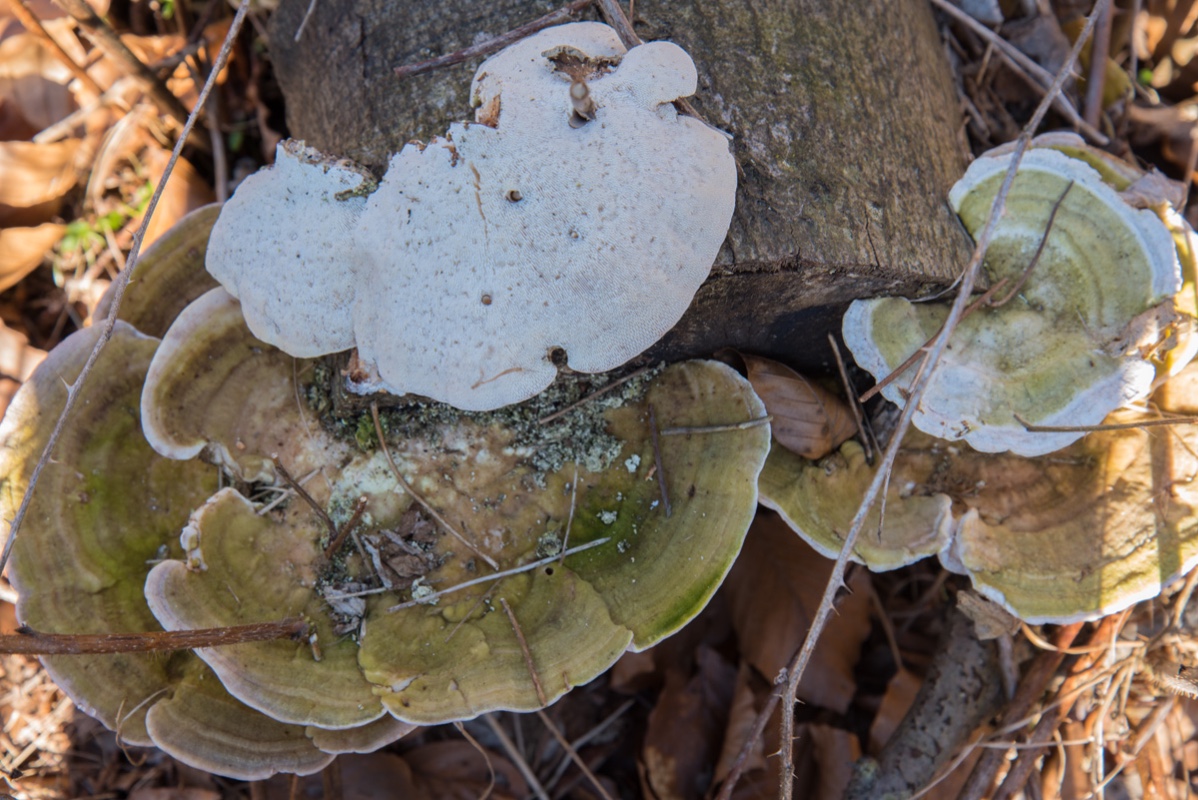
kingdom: Fungi
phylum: Basidiomycota
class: Agaricomycetes
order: Polyporales
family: Polyporaceae
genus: Trametes
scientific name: Trametes gibbosa
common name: puklet læderporesvamp
